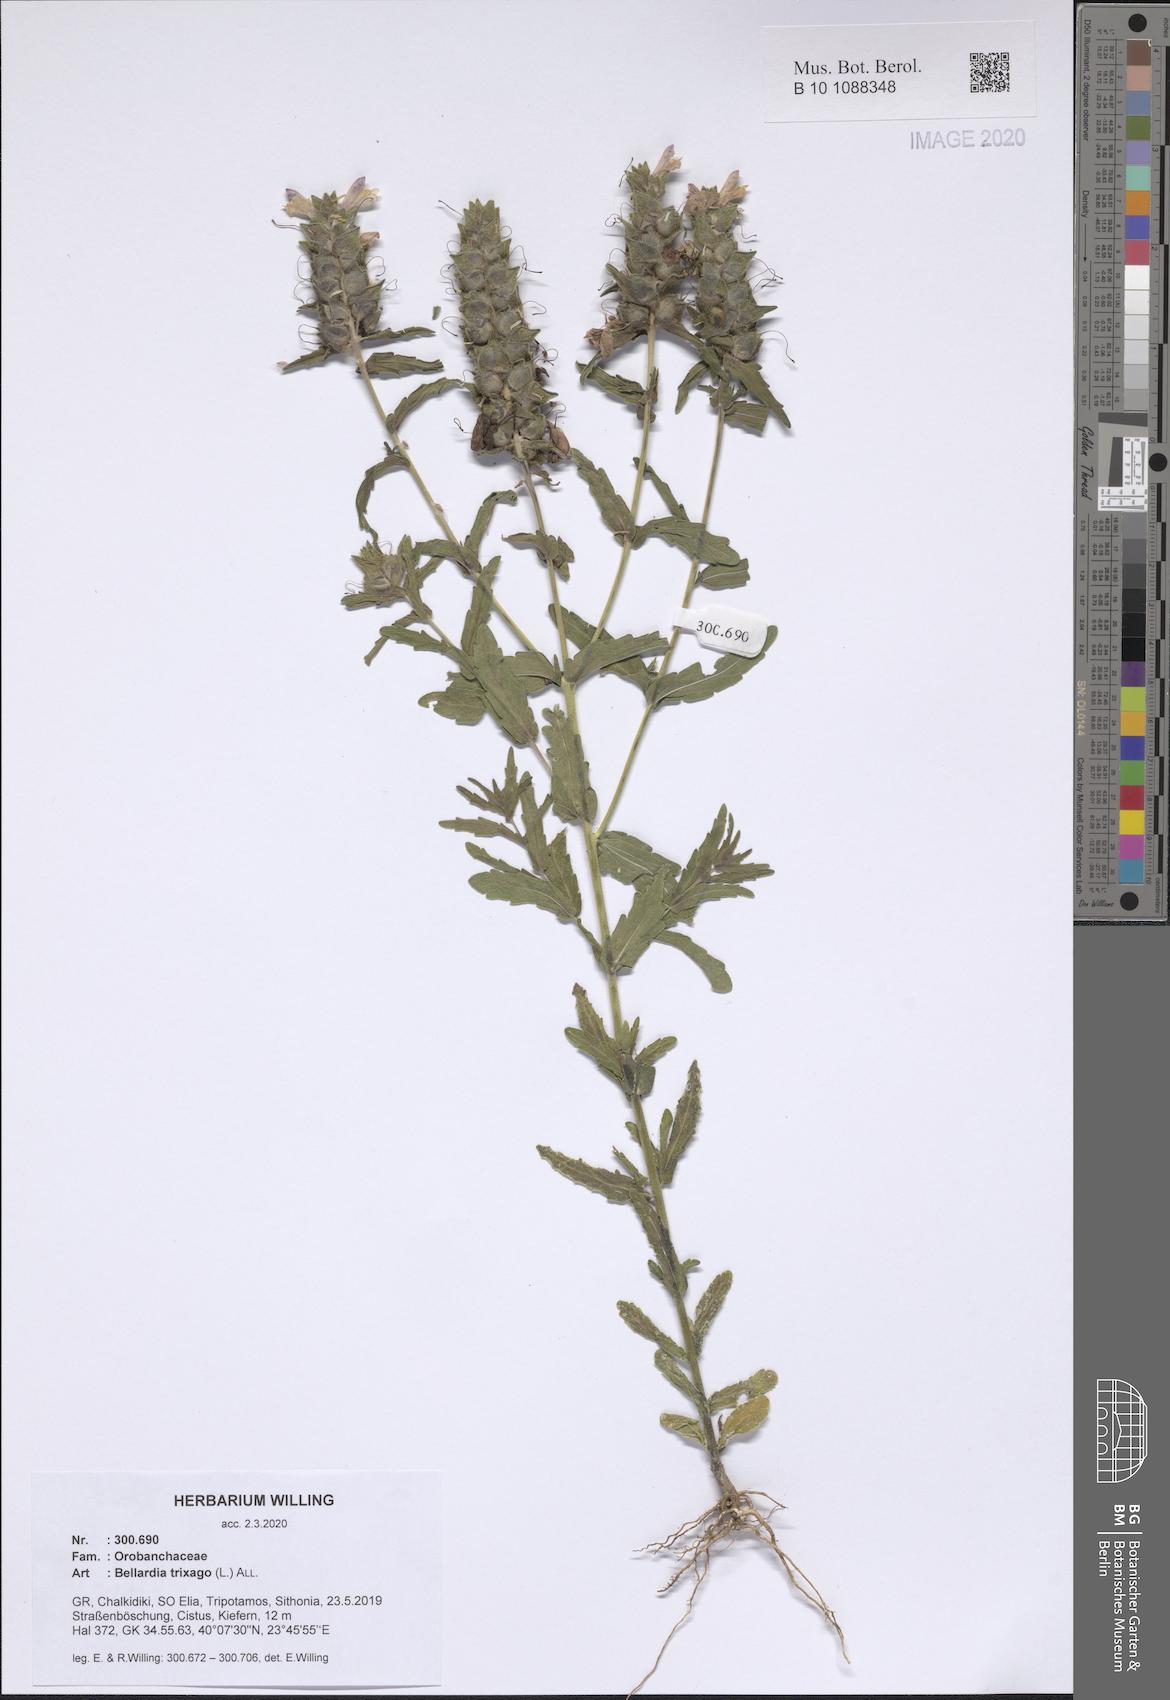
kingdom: Plantae
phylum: Tracheophyta
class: Magnoliopsida
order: Lamiales
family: Orobanchaceae
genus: Bellardia
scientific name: Bellardia trixago
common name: Mediterranean lineseed
